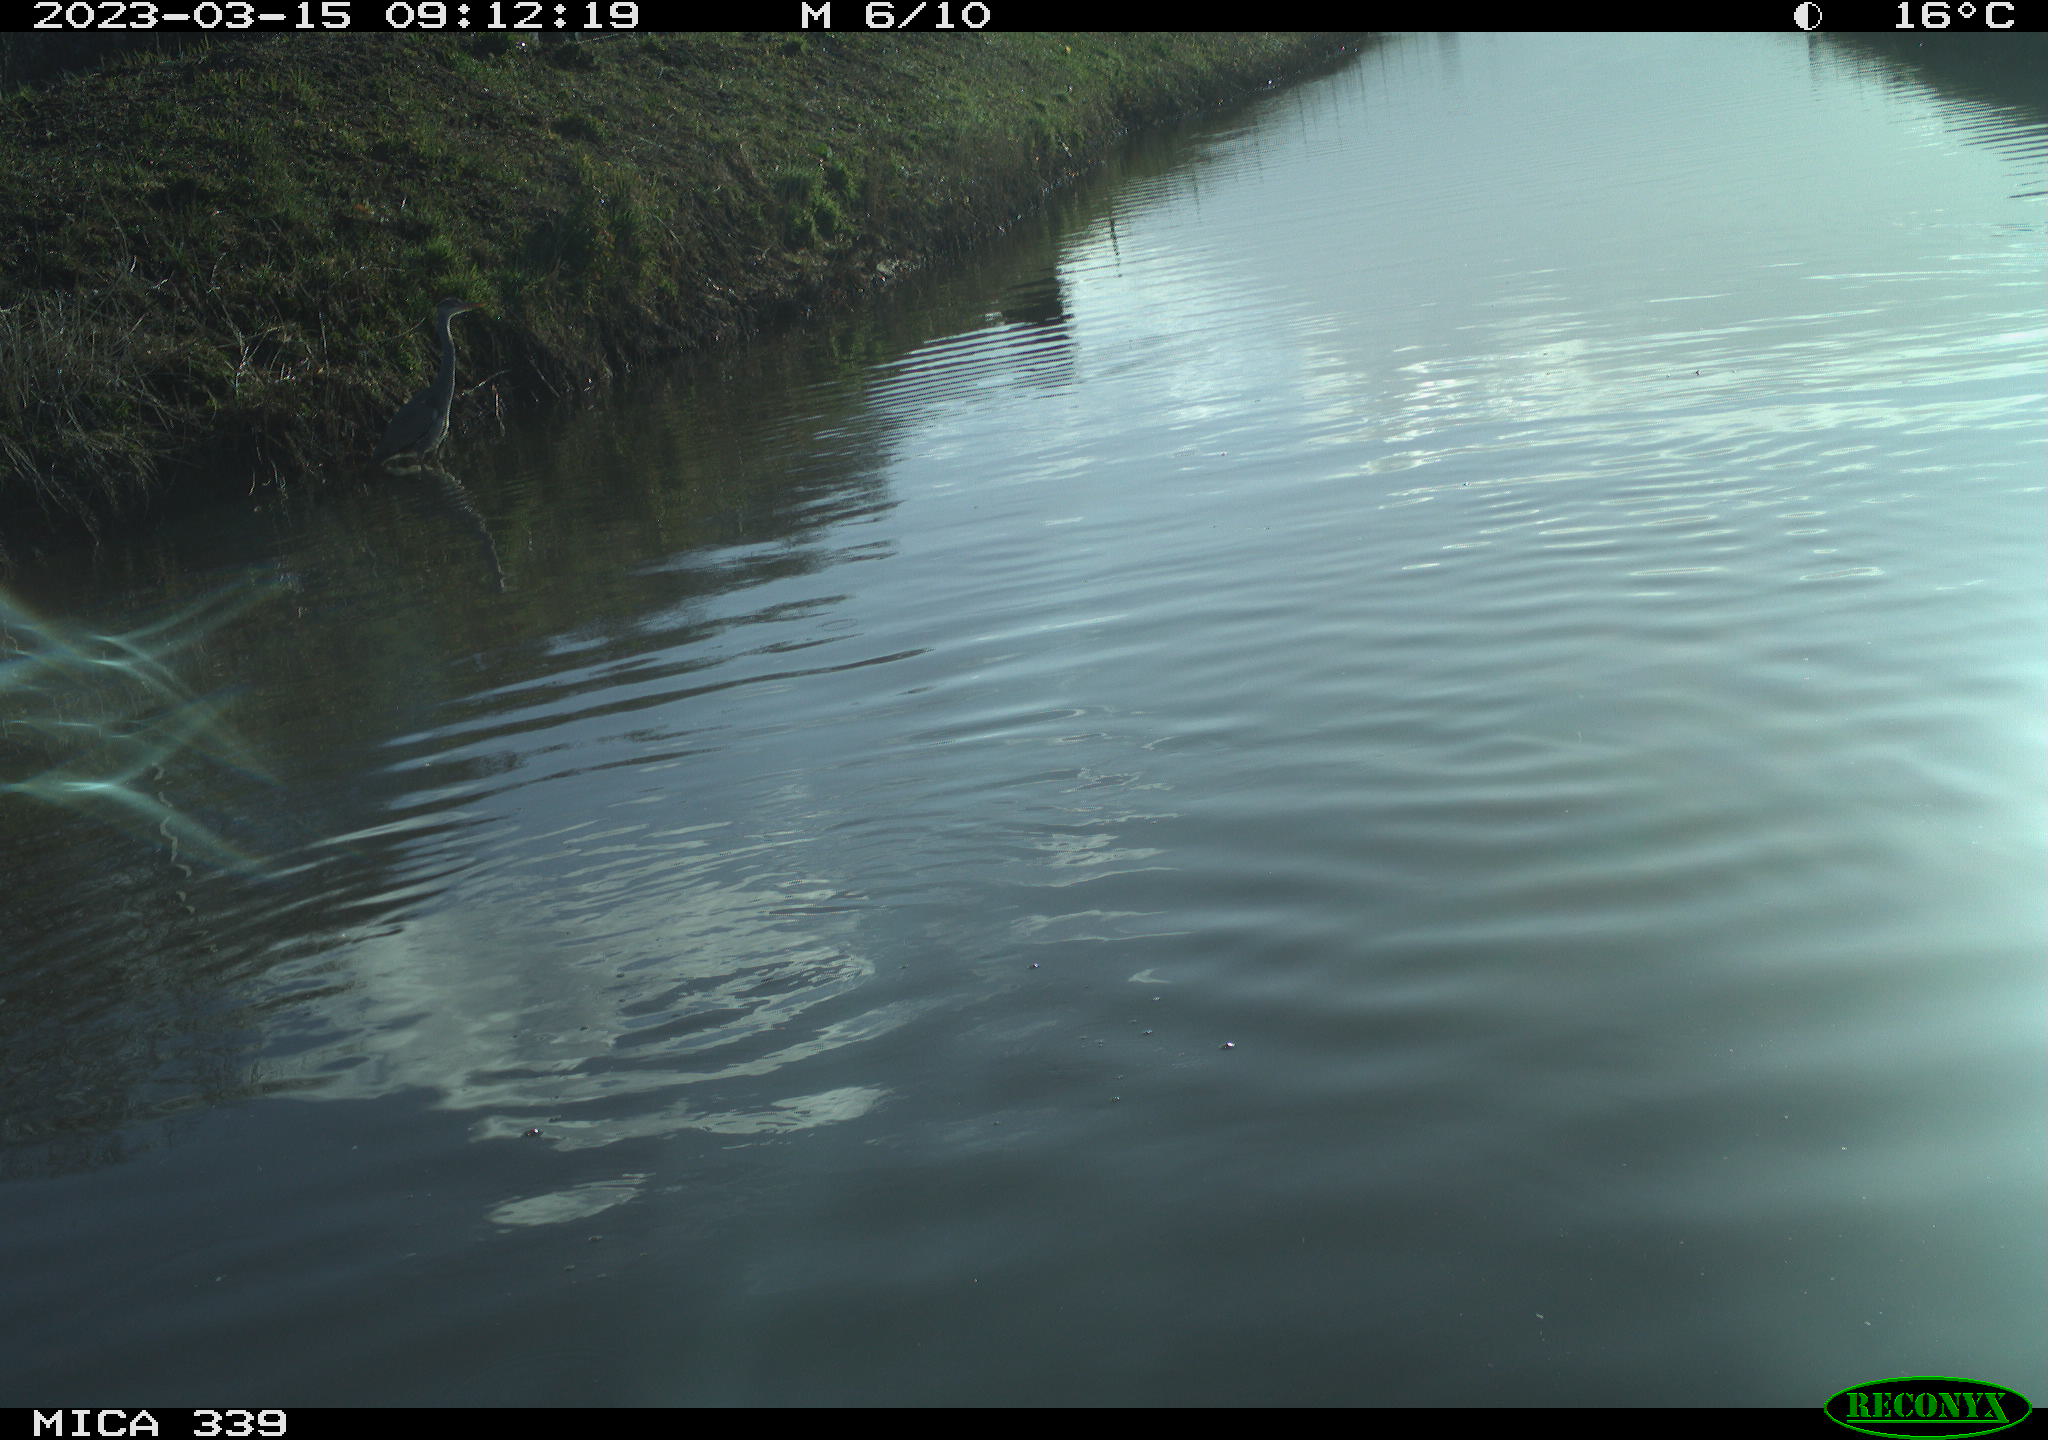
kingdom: Animalia
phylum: Chordata
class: Aves
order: Suliformes
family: Phalacrocoracidae
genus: Phalacrocorax
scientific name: Phalacrocorax carbo
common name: Great cormorant
